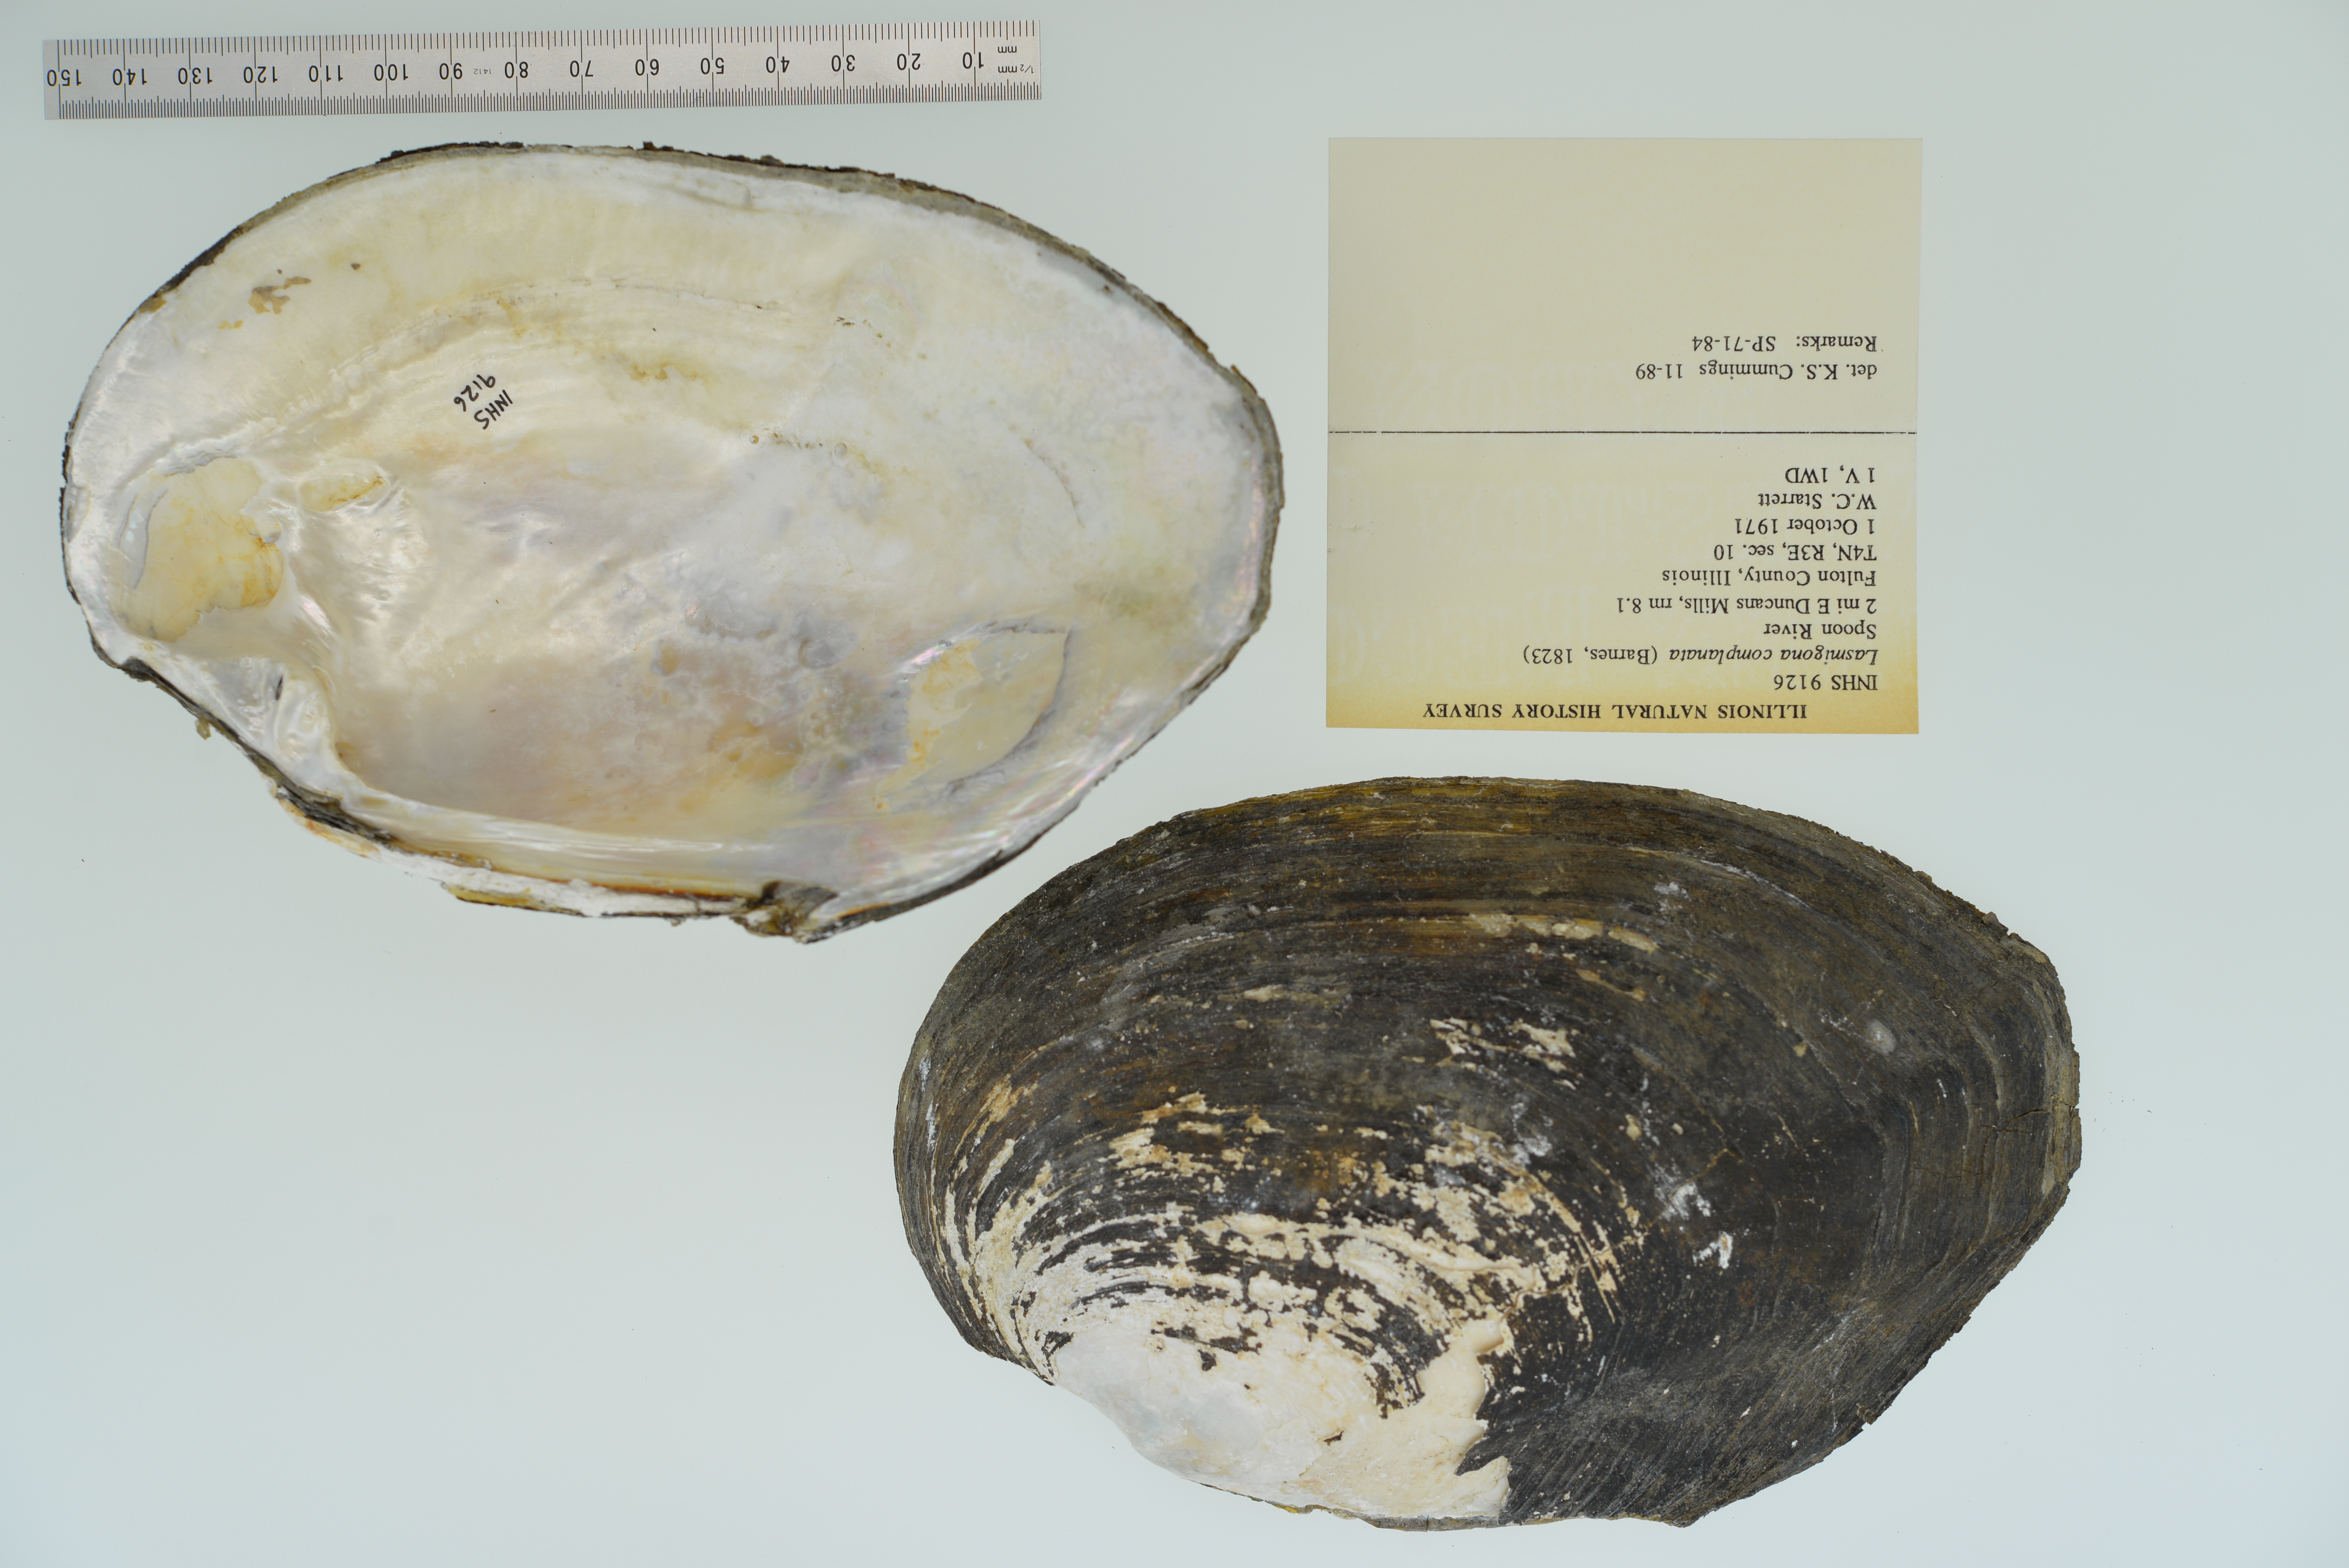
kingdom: Animalia
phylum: Mollusca
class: Bivalvia
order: Unionida
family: Unionidae
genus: Lasmigona
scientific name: Lasmigona complanata
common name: White heelsplitter
